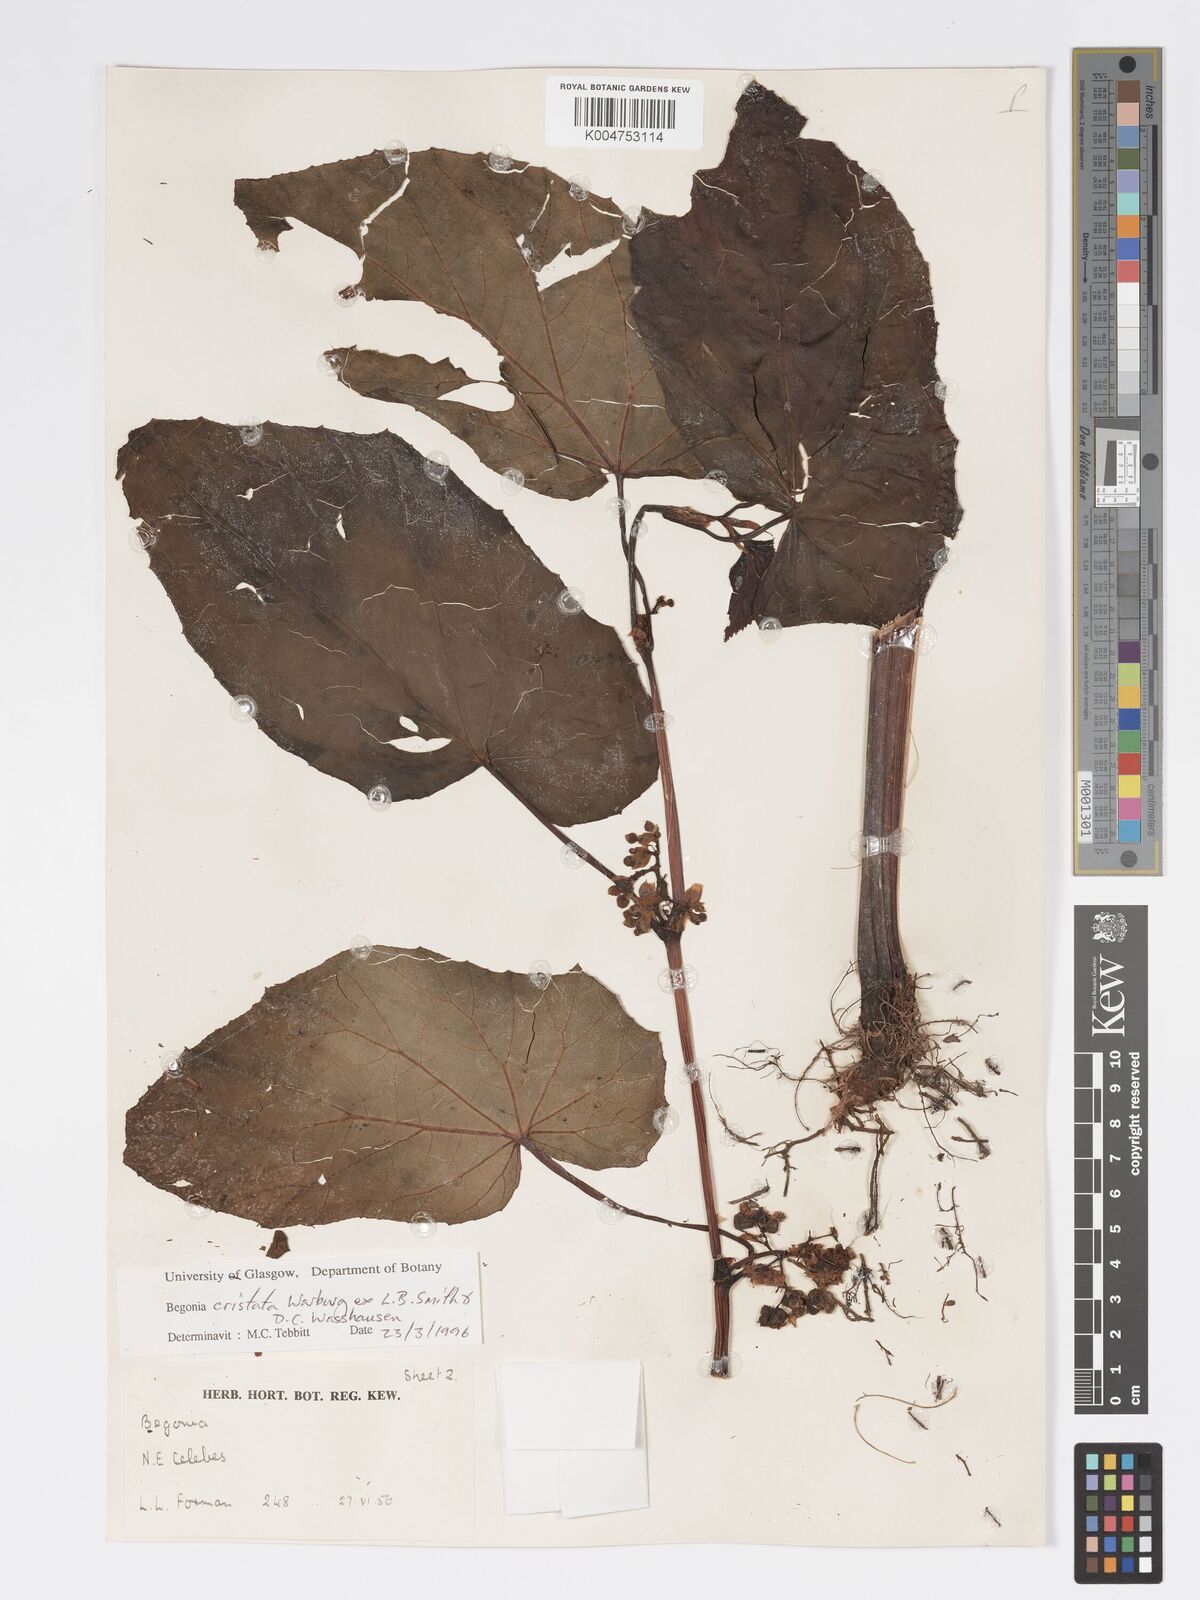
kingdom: Plantae
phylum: Tracheophyta
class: Magnoliopsida
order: Cucurbitales
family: Begoniaceae
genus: Begonia
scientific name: Begonia
